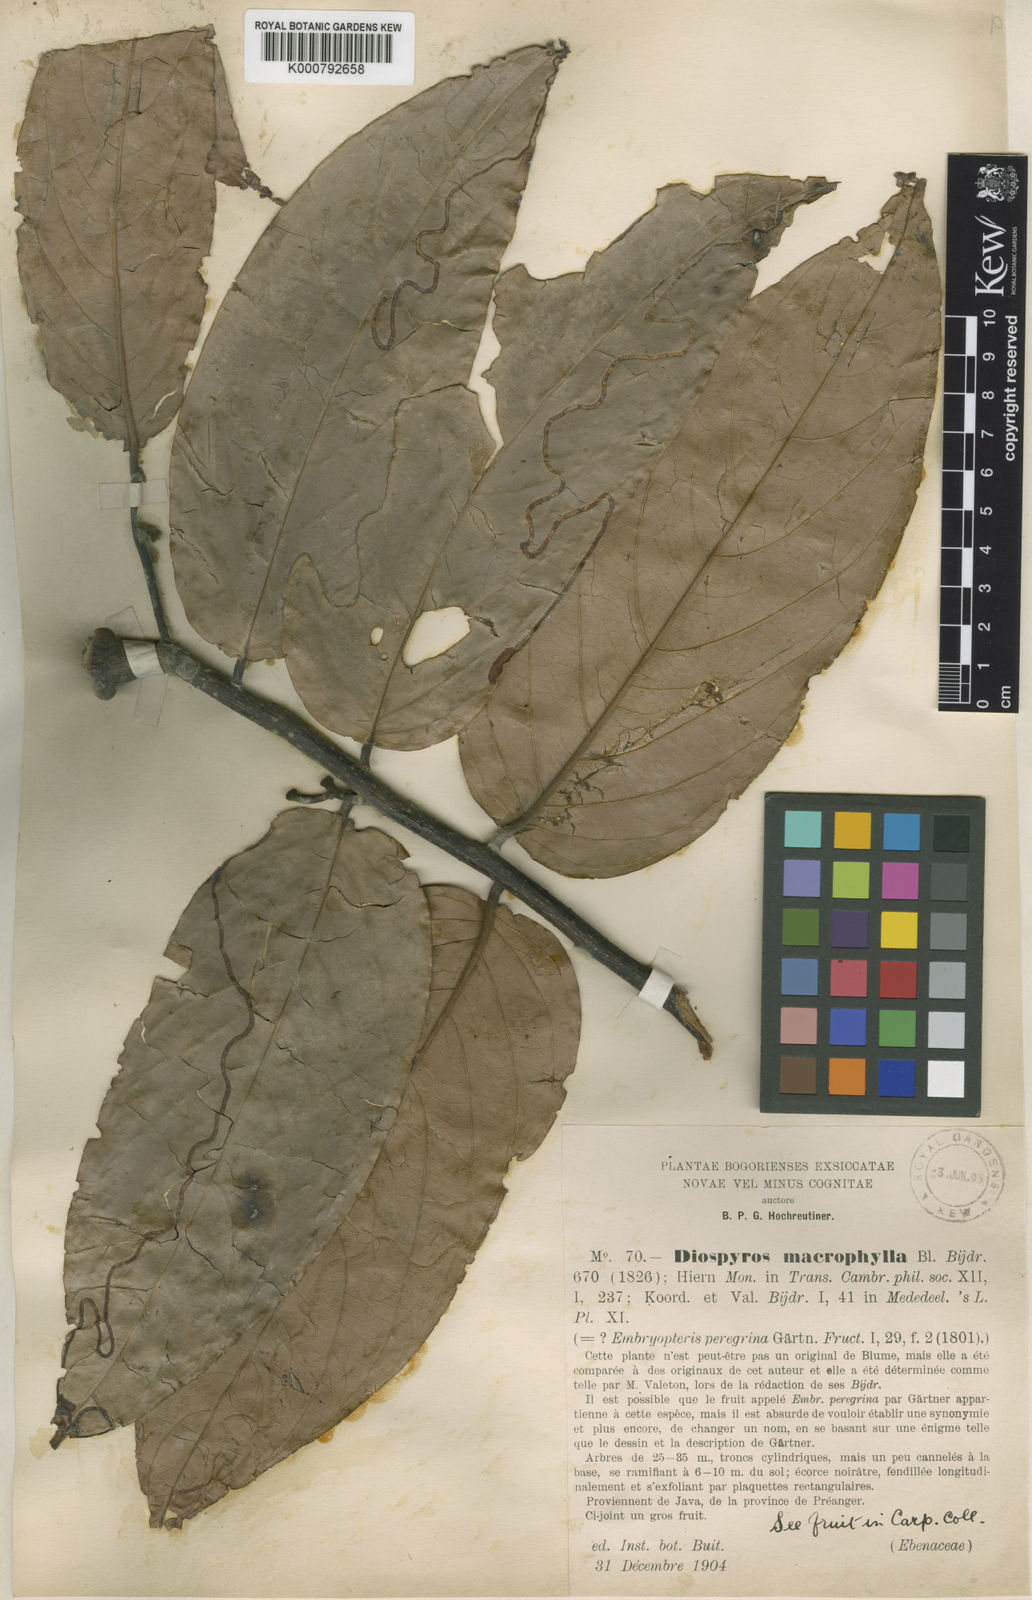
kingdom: Plantae
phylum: Tracheophyta
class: Magnoliopsida
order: Ericales
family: Ebenaceae
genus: Diospyros
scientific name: Diospyros macrophylla
